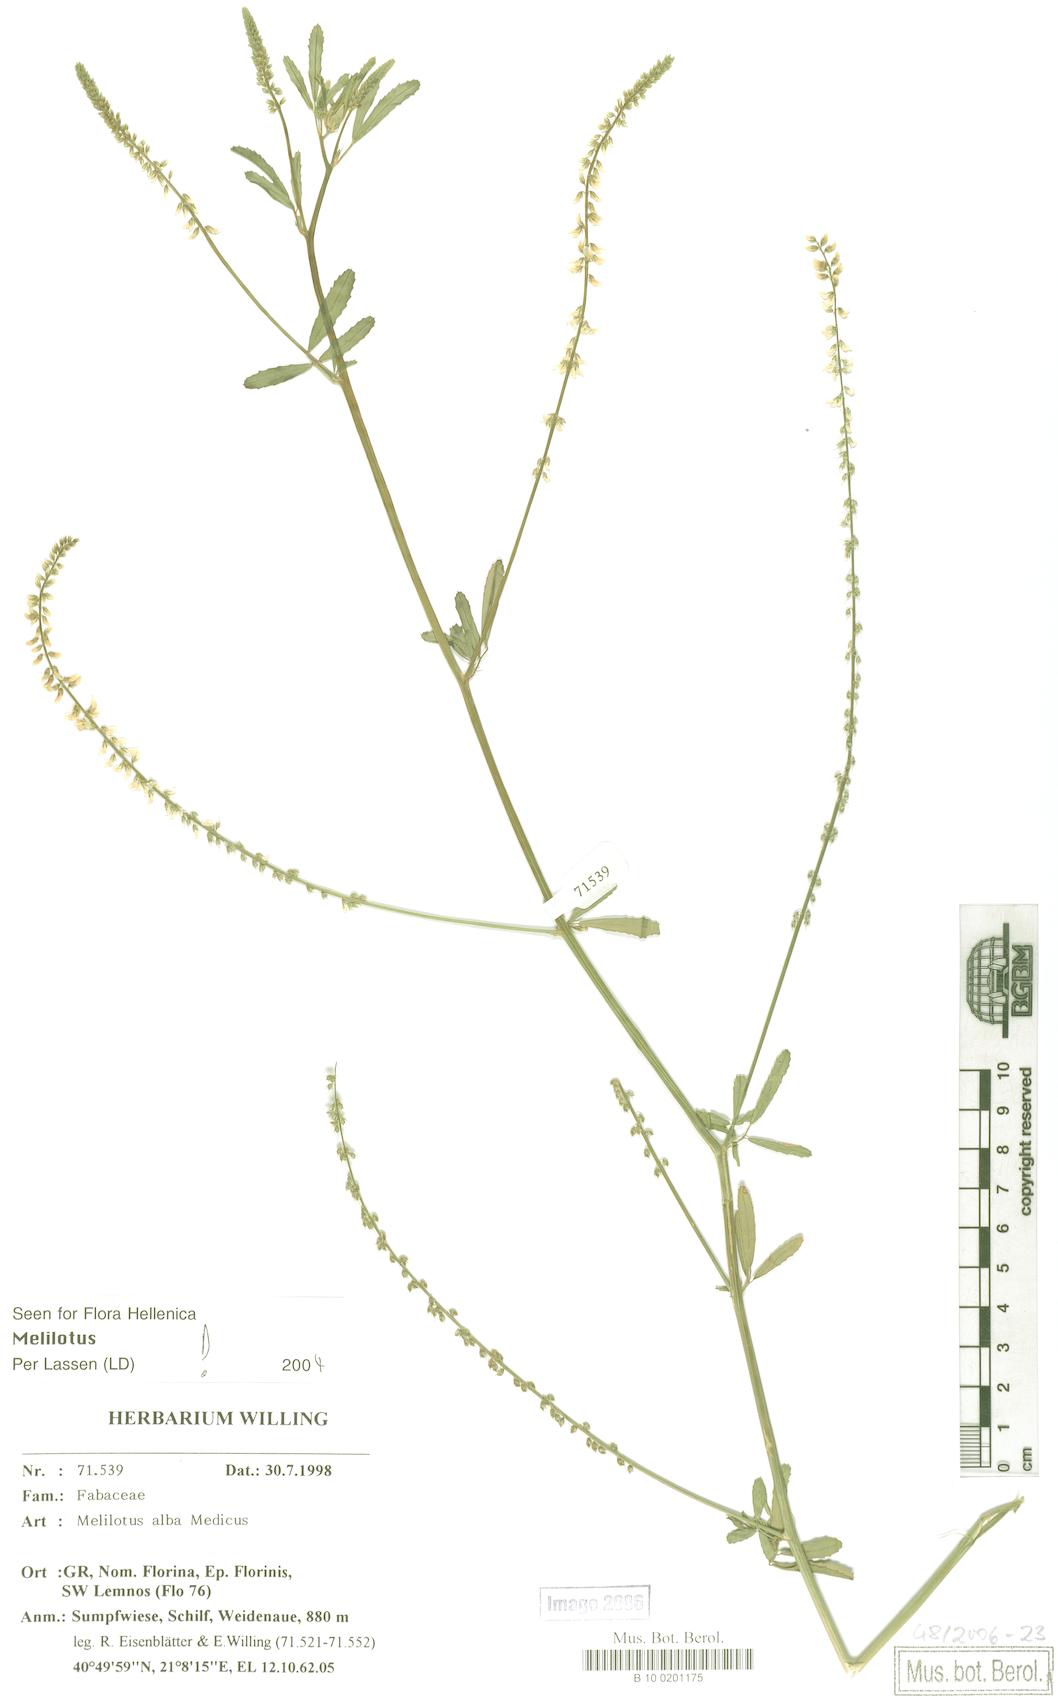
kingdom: Plantae
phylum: Tracheophyta
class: Magnoliopsida
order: Fabales
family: Fabaceae
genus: Melilotus
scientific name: Melilotus albus
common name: White melilot
